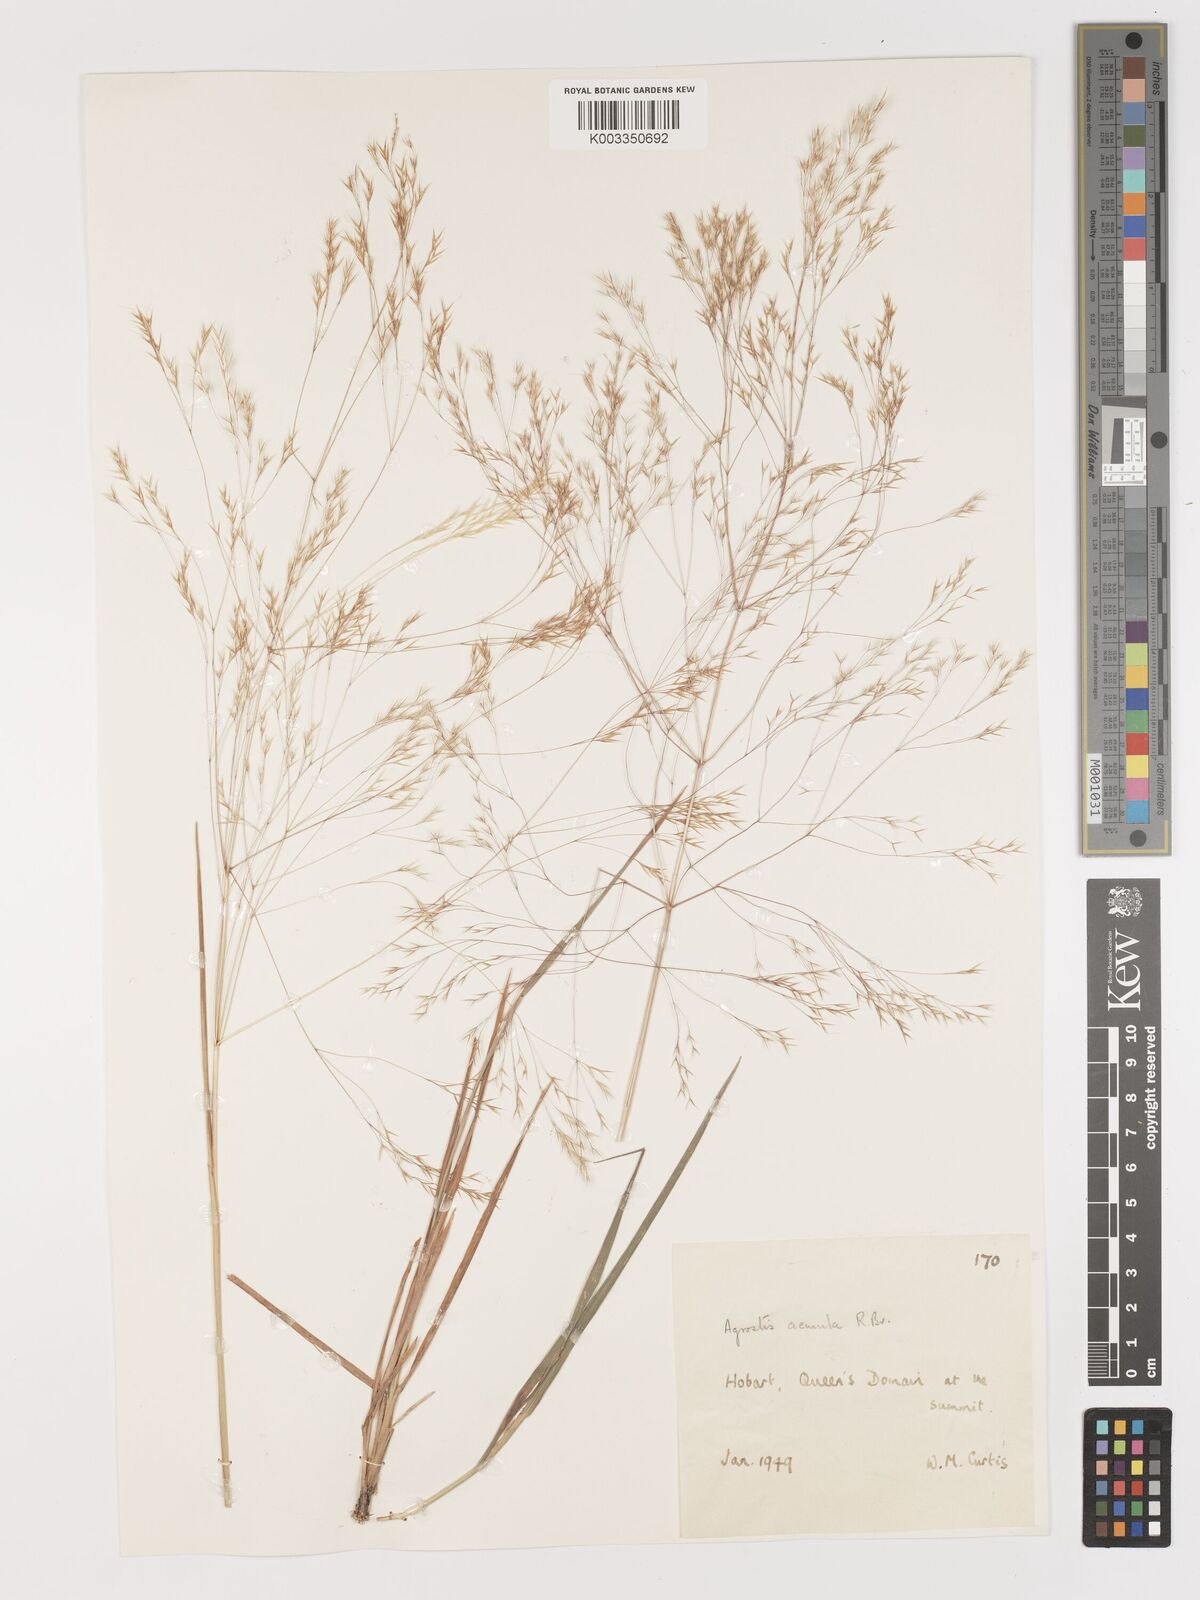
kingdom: Plantae
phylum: Tracheophyta
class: Liliopsida
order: Poales
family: Poaceae
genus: Lachnagrostis
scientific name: Lachnagrostis aemula
